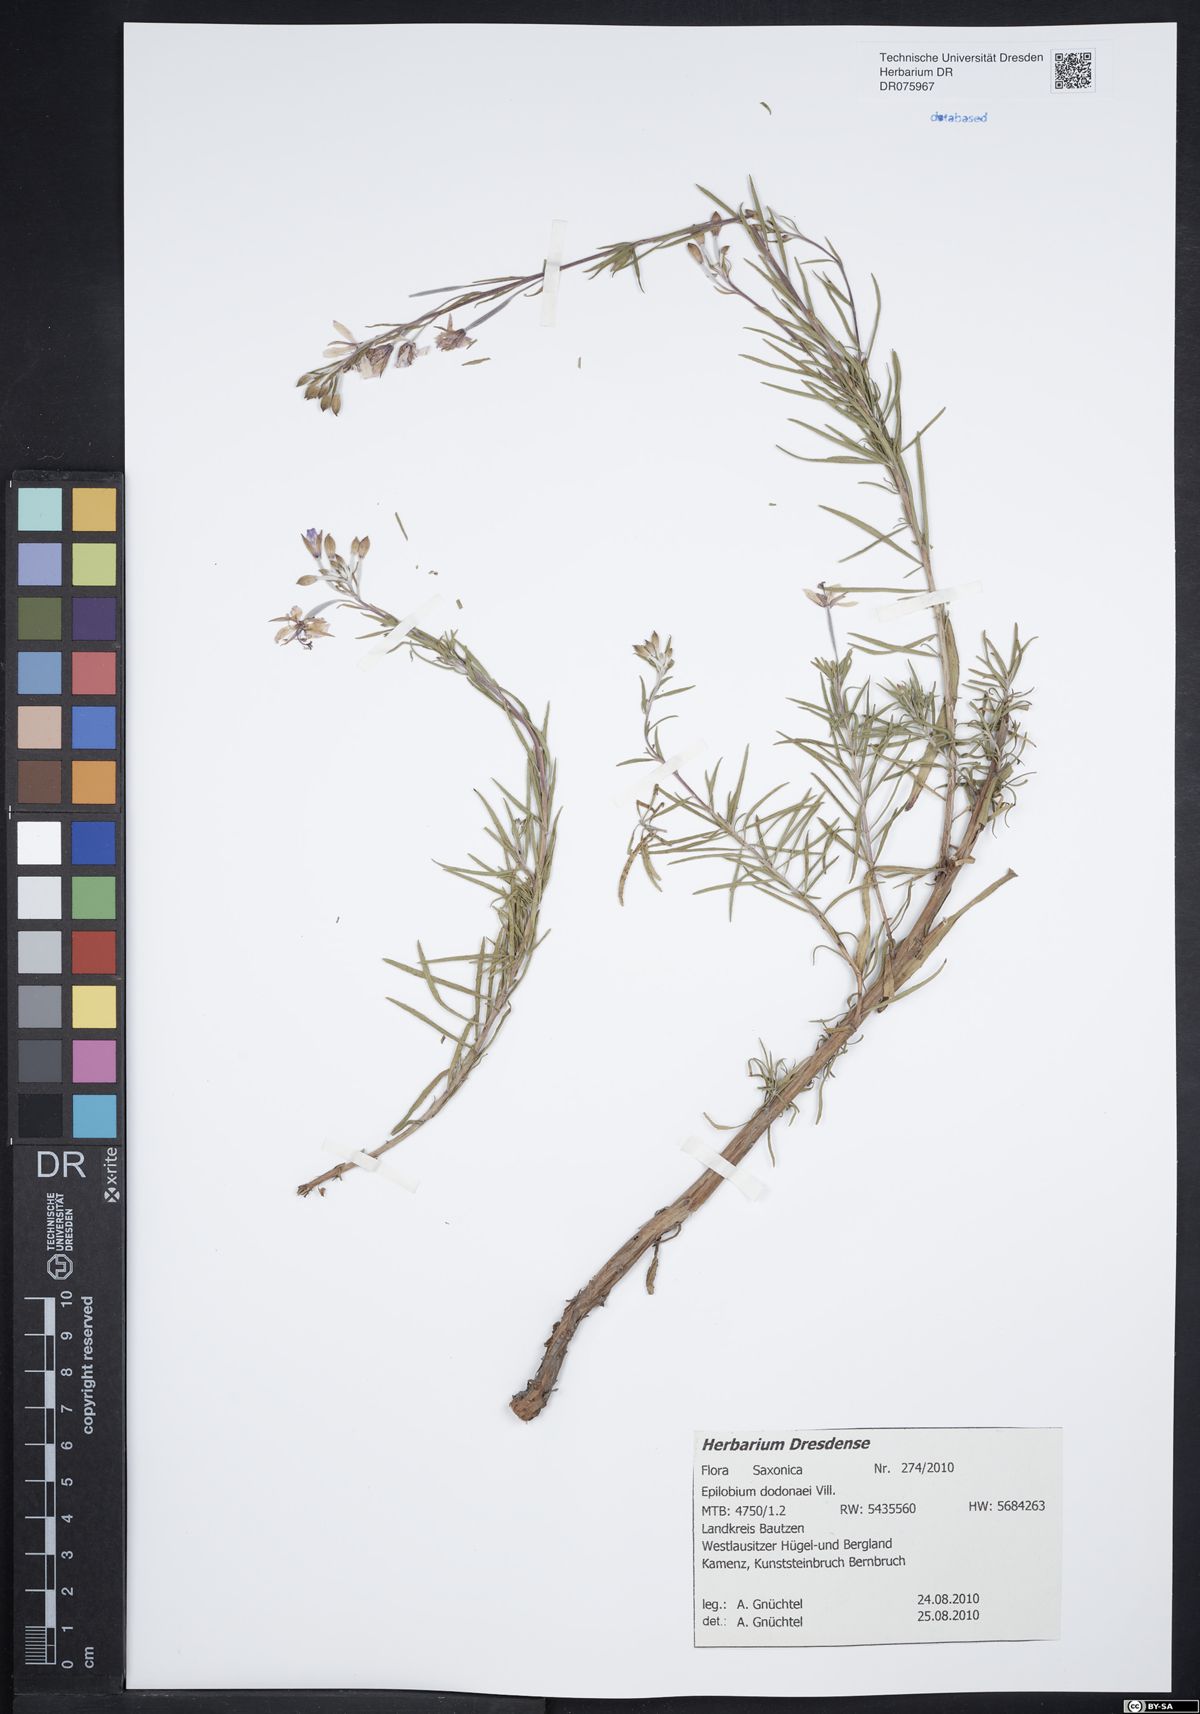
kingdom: Plantae
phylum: Tracheophyta
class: Magnoliopsida
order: Myrtales
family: Onagraceae
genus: Chamaenerion
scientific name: Chamaenerion dodonaei
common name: Rosemary-leaved willowherb
